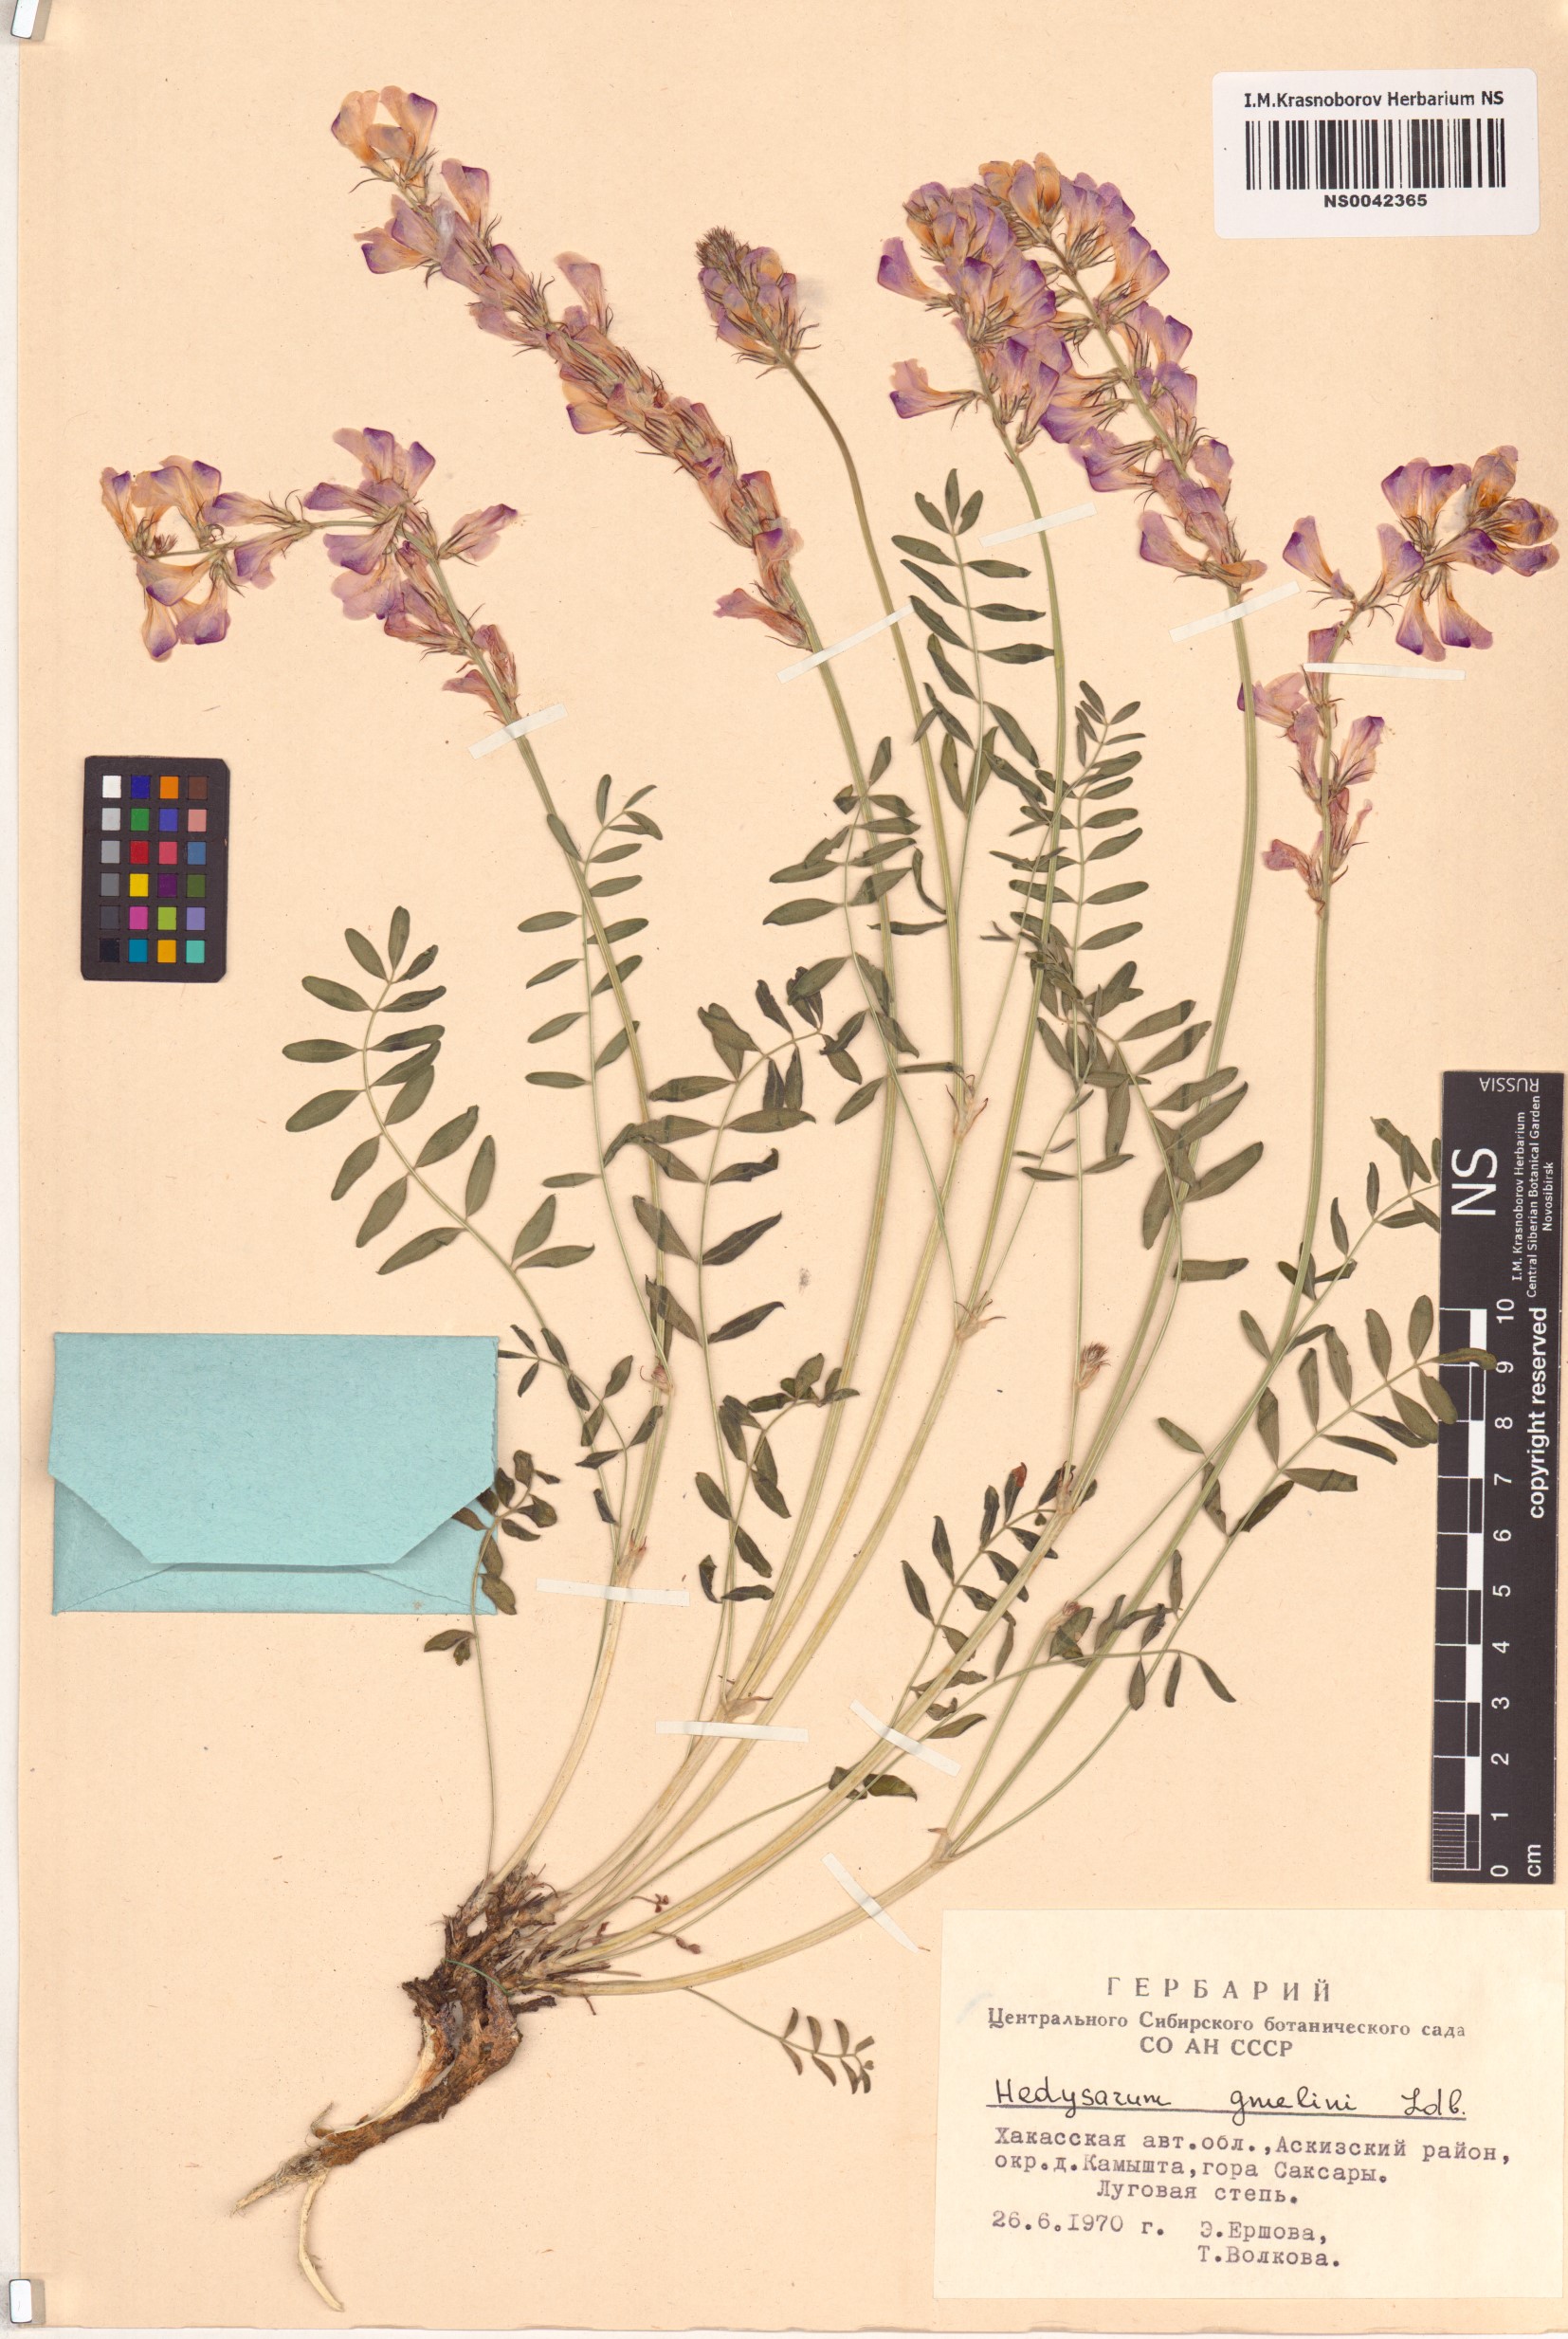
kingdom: Plantae
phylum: Tracheophyta
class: Magnoliopsida
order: Fabales
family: Fabaceae
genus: Hedysarum
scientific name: Hedysarum gmelinii
